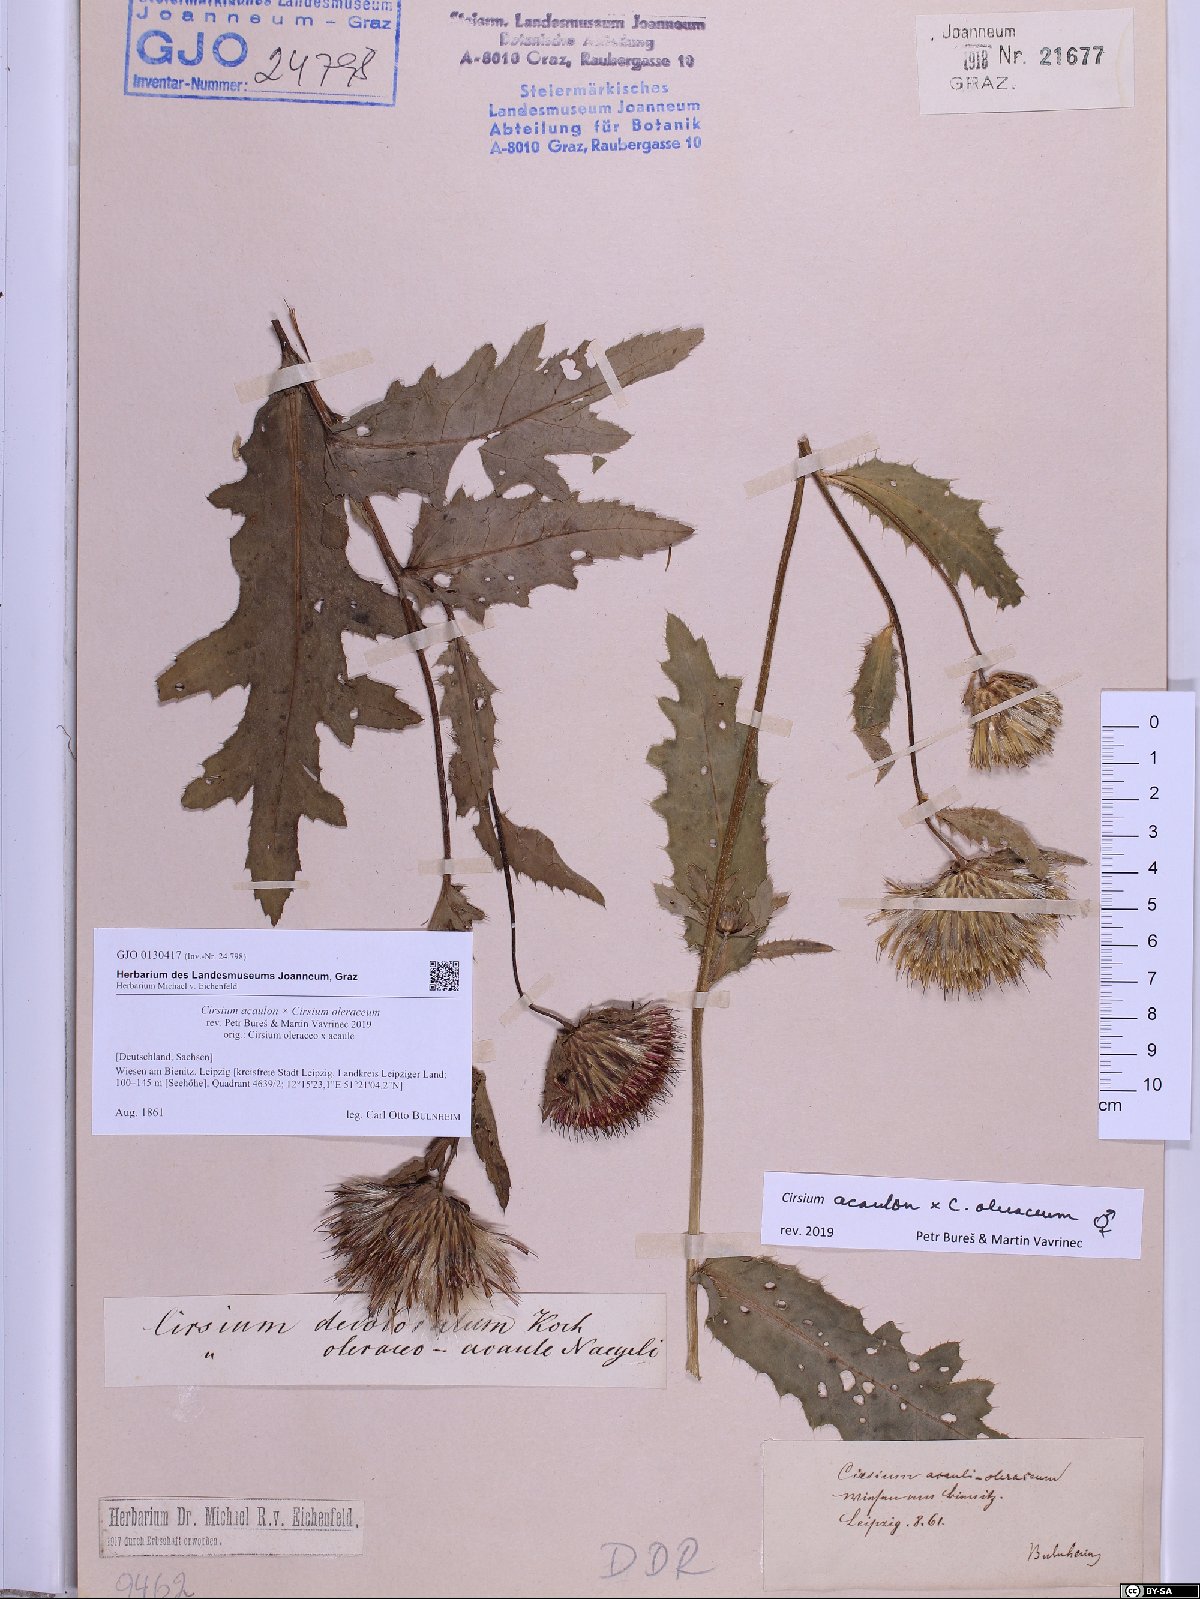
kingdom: Plantae
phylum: Tracheophyta
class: Magnoliopsida
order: Asterales
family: Asteraceae
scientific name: Asteraceae
